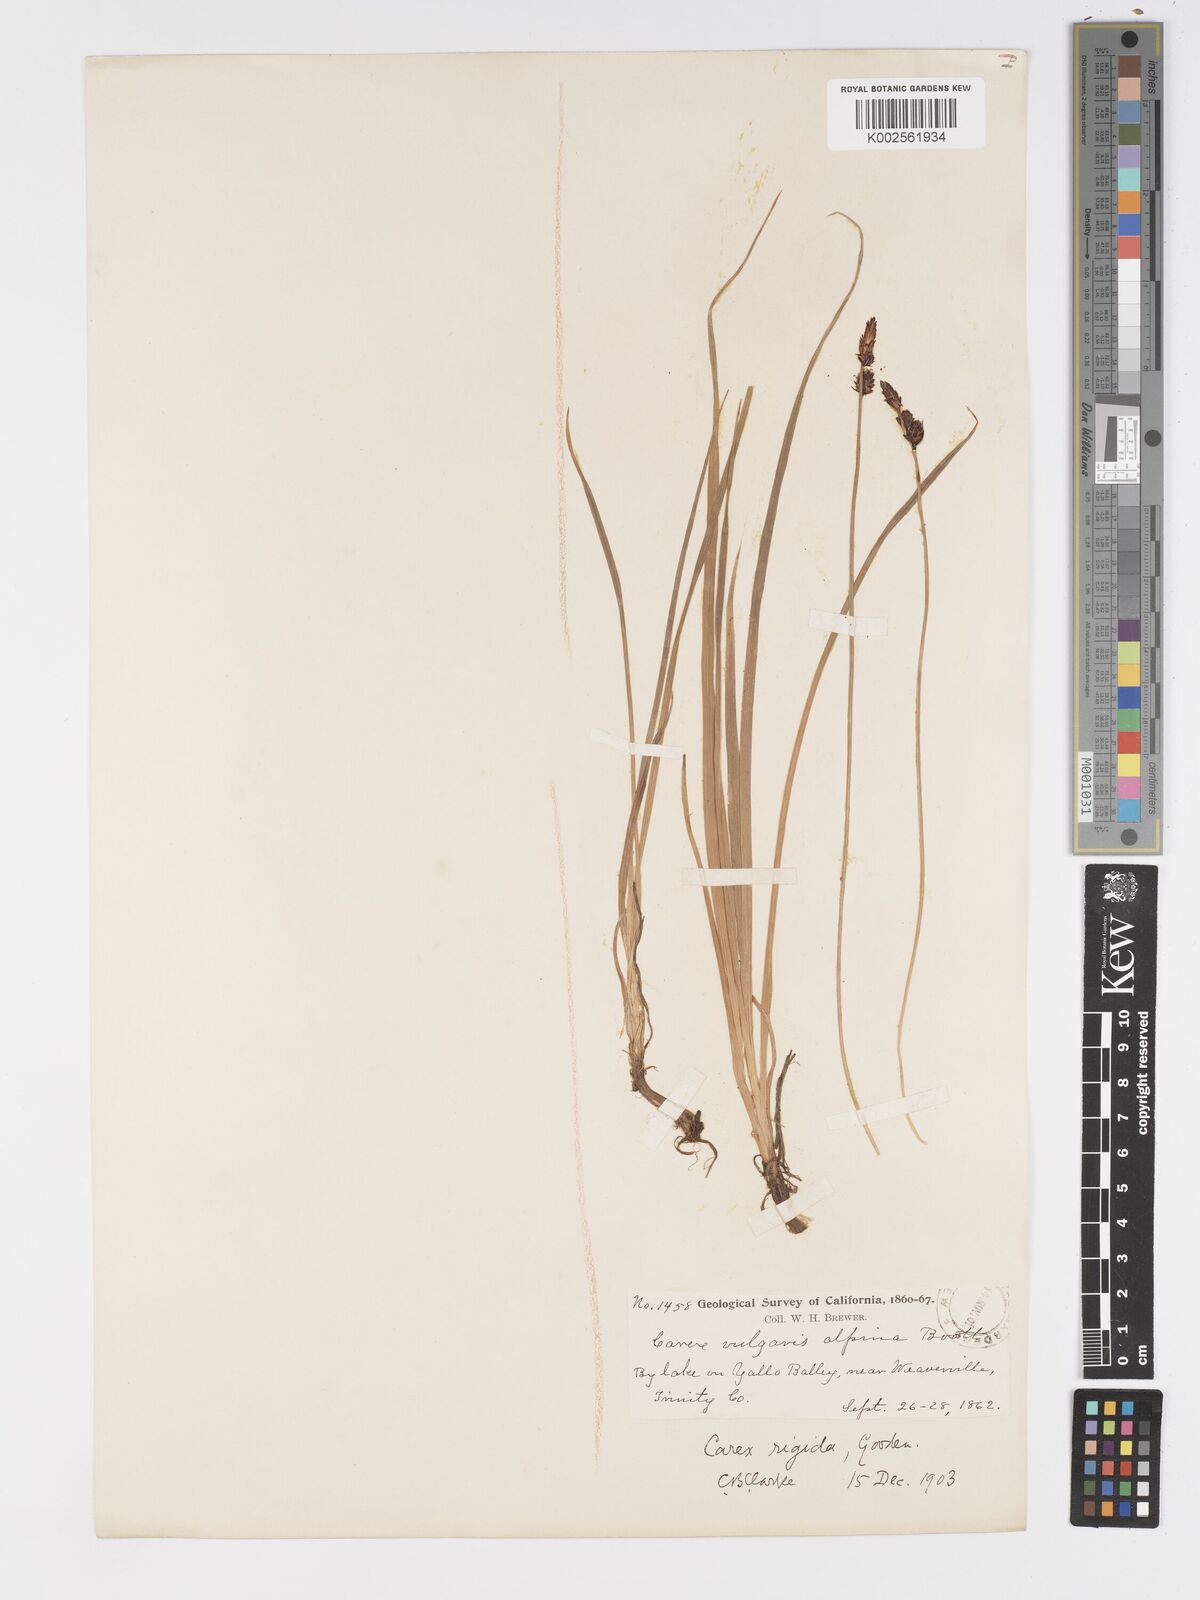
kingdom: Plantae
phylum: Tracheophyta
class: Liliopsida
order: Poales
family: Cyperaceae
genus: Carex
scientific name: Carex bigelowii
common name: Stiff sedge
